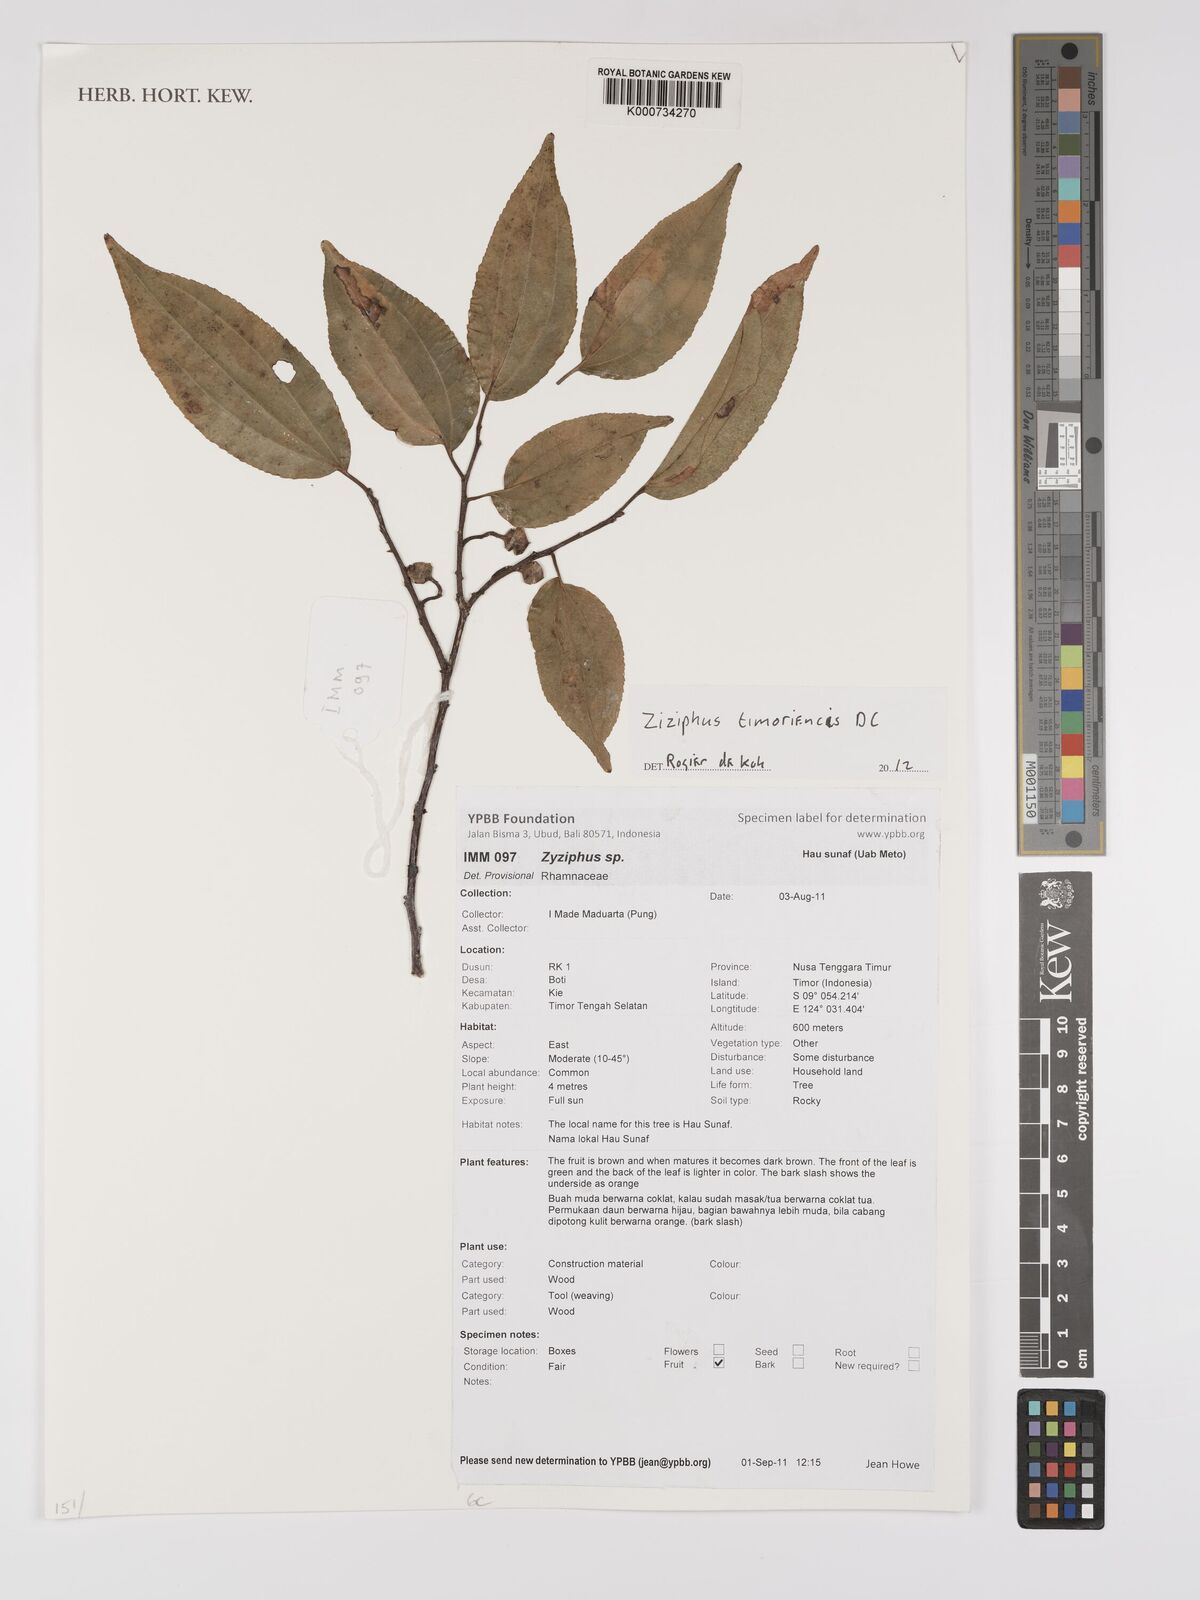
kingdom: Plantae
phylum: Tracheophyta
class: Magnoliopsida
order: Rosales
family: Rhamnaceae
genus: Ziziphus
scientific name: Ziziphus timoriensis
